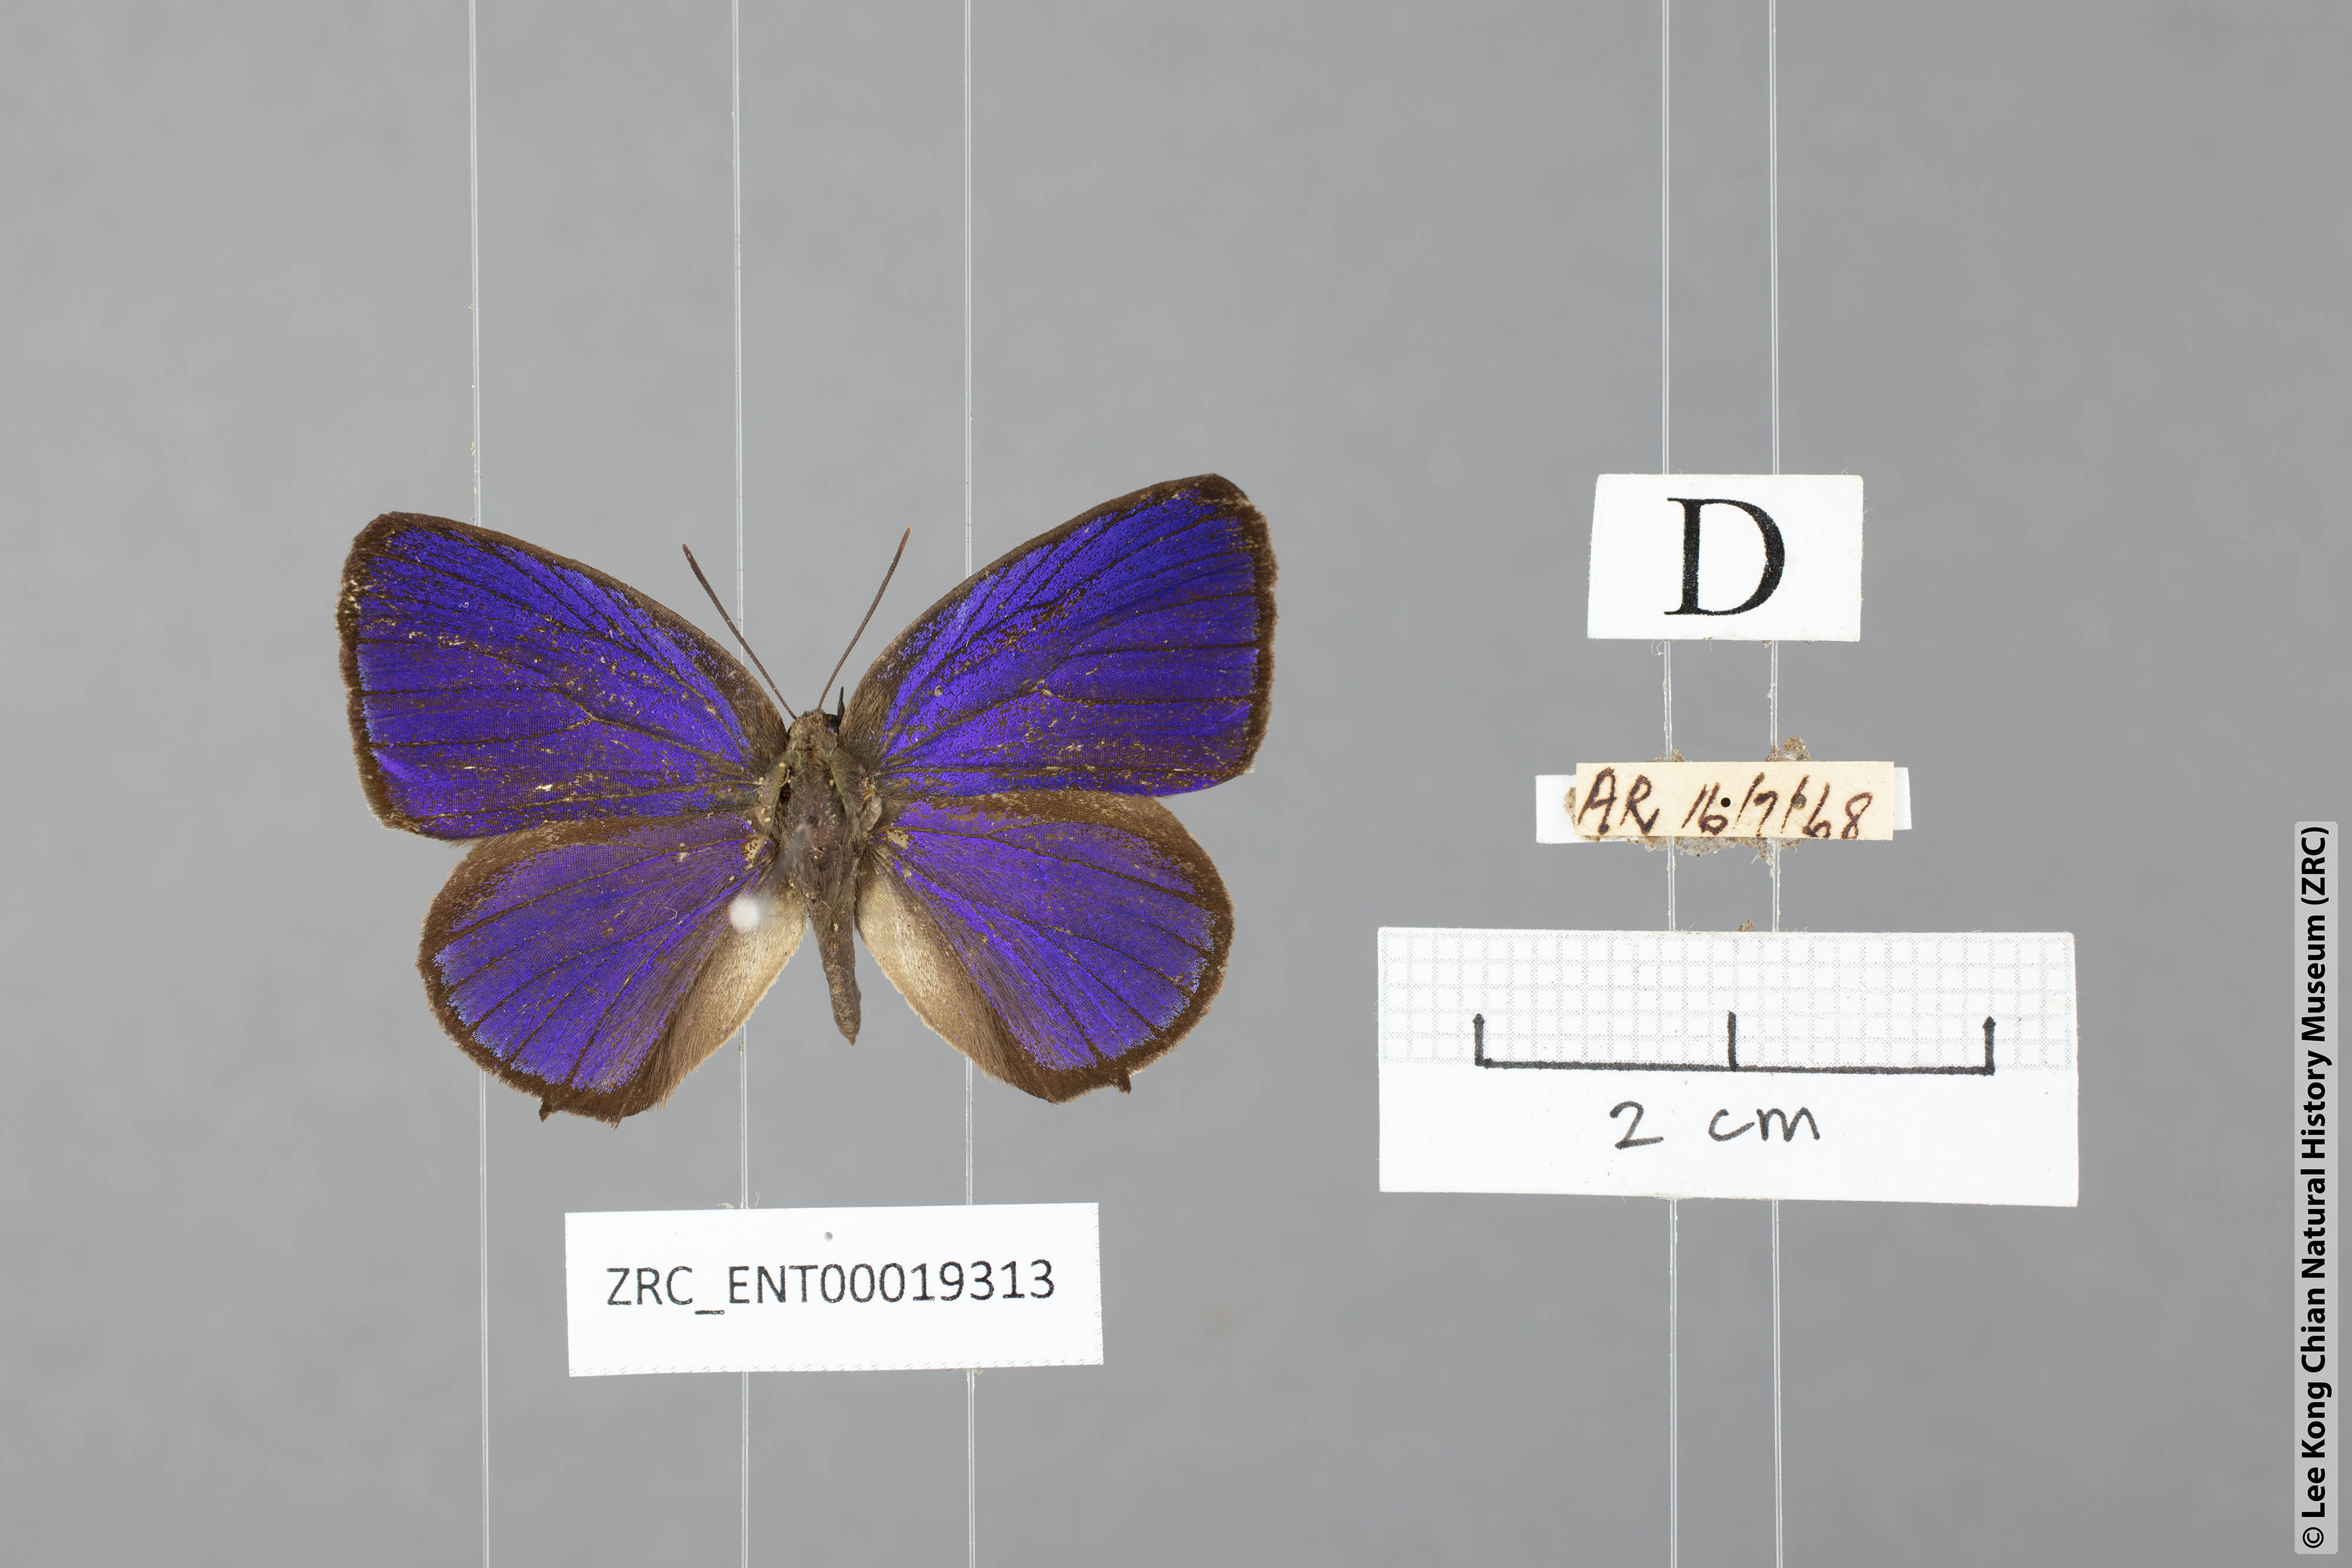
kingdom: Animalia
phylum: Arthropoda
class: Insecta
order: Lepidoptera
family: Lycaenidae
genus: Arhopala
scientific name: Arhopala buddha
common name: Buddha oakblue
